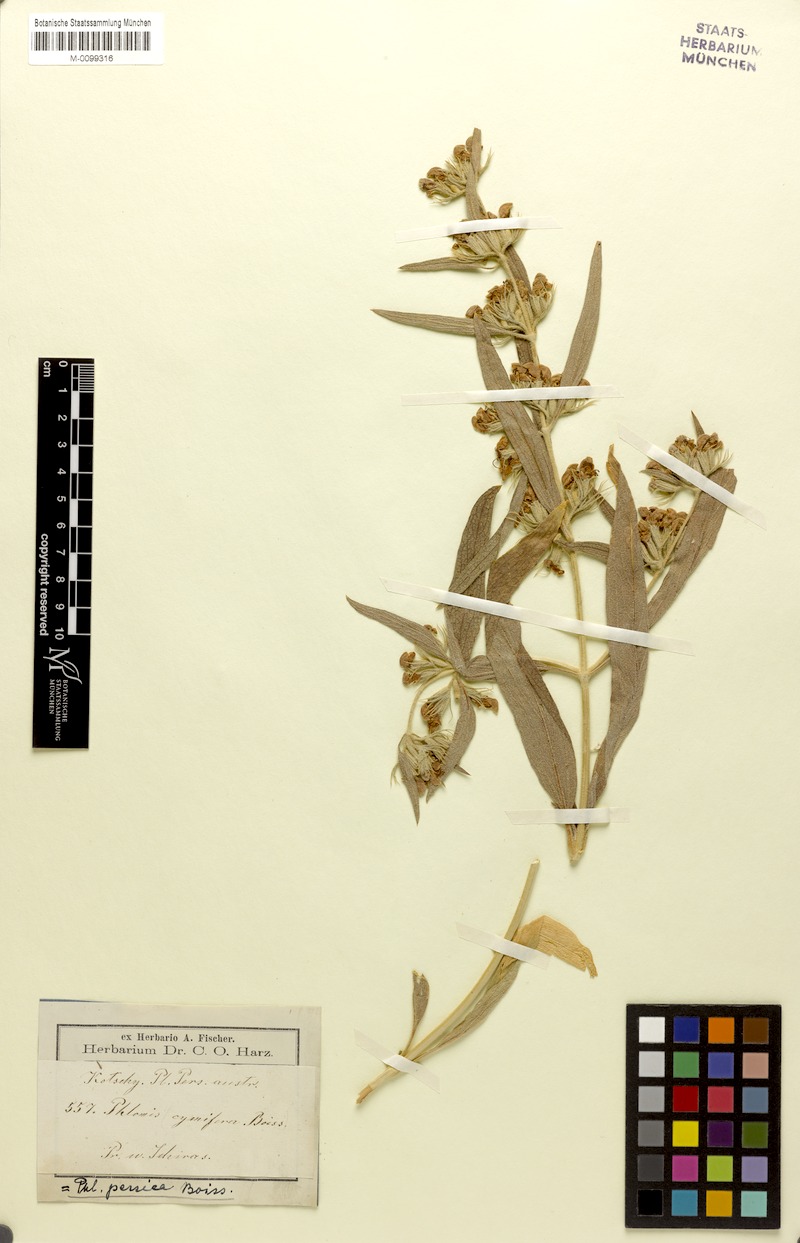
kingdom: Plantae
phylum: Tracheophyta
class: Magnoliopsida
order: Lamiales
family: Lamiaceae
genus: Phlomis
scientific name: Phlomis persica
